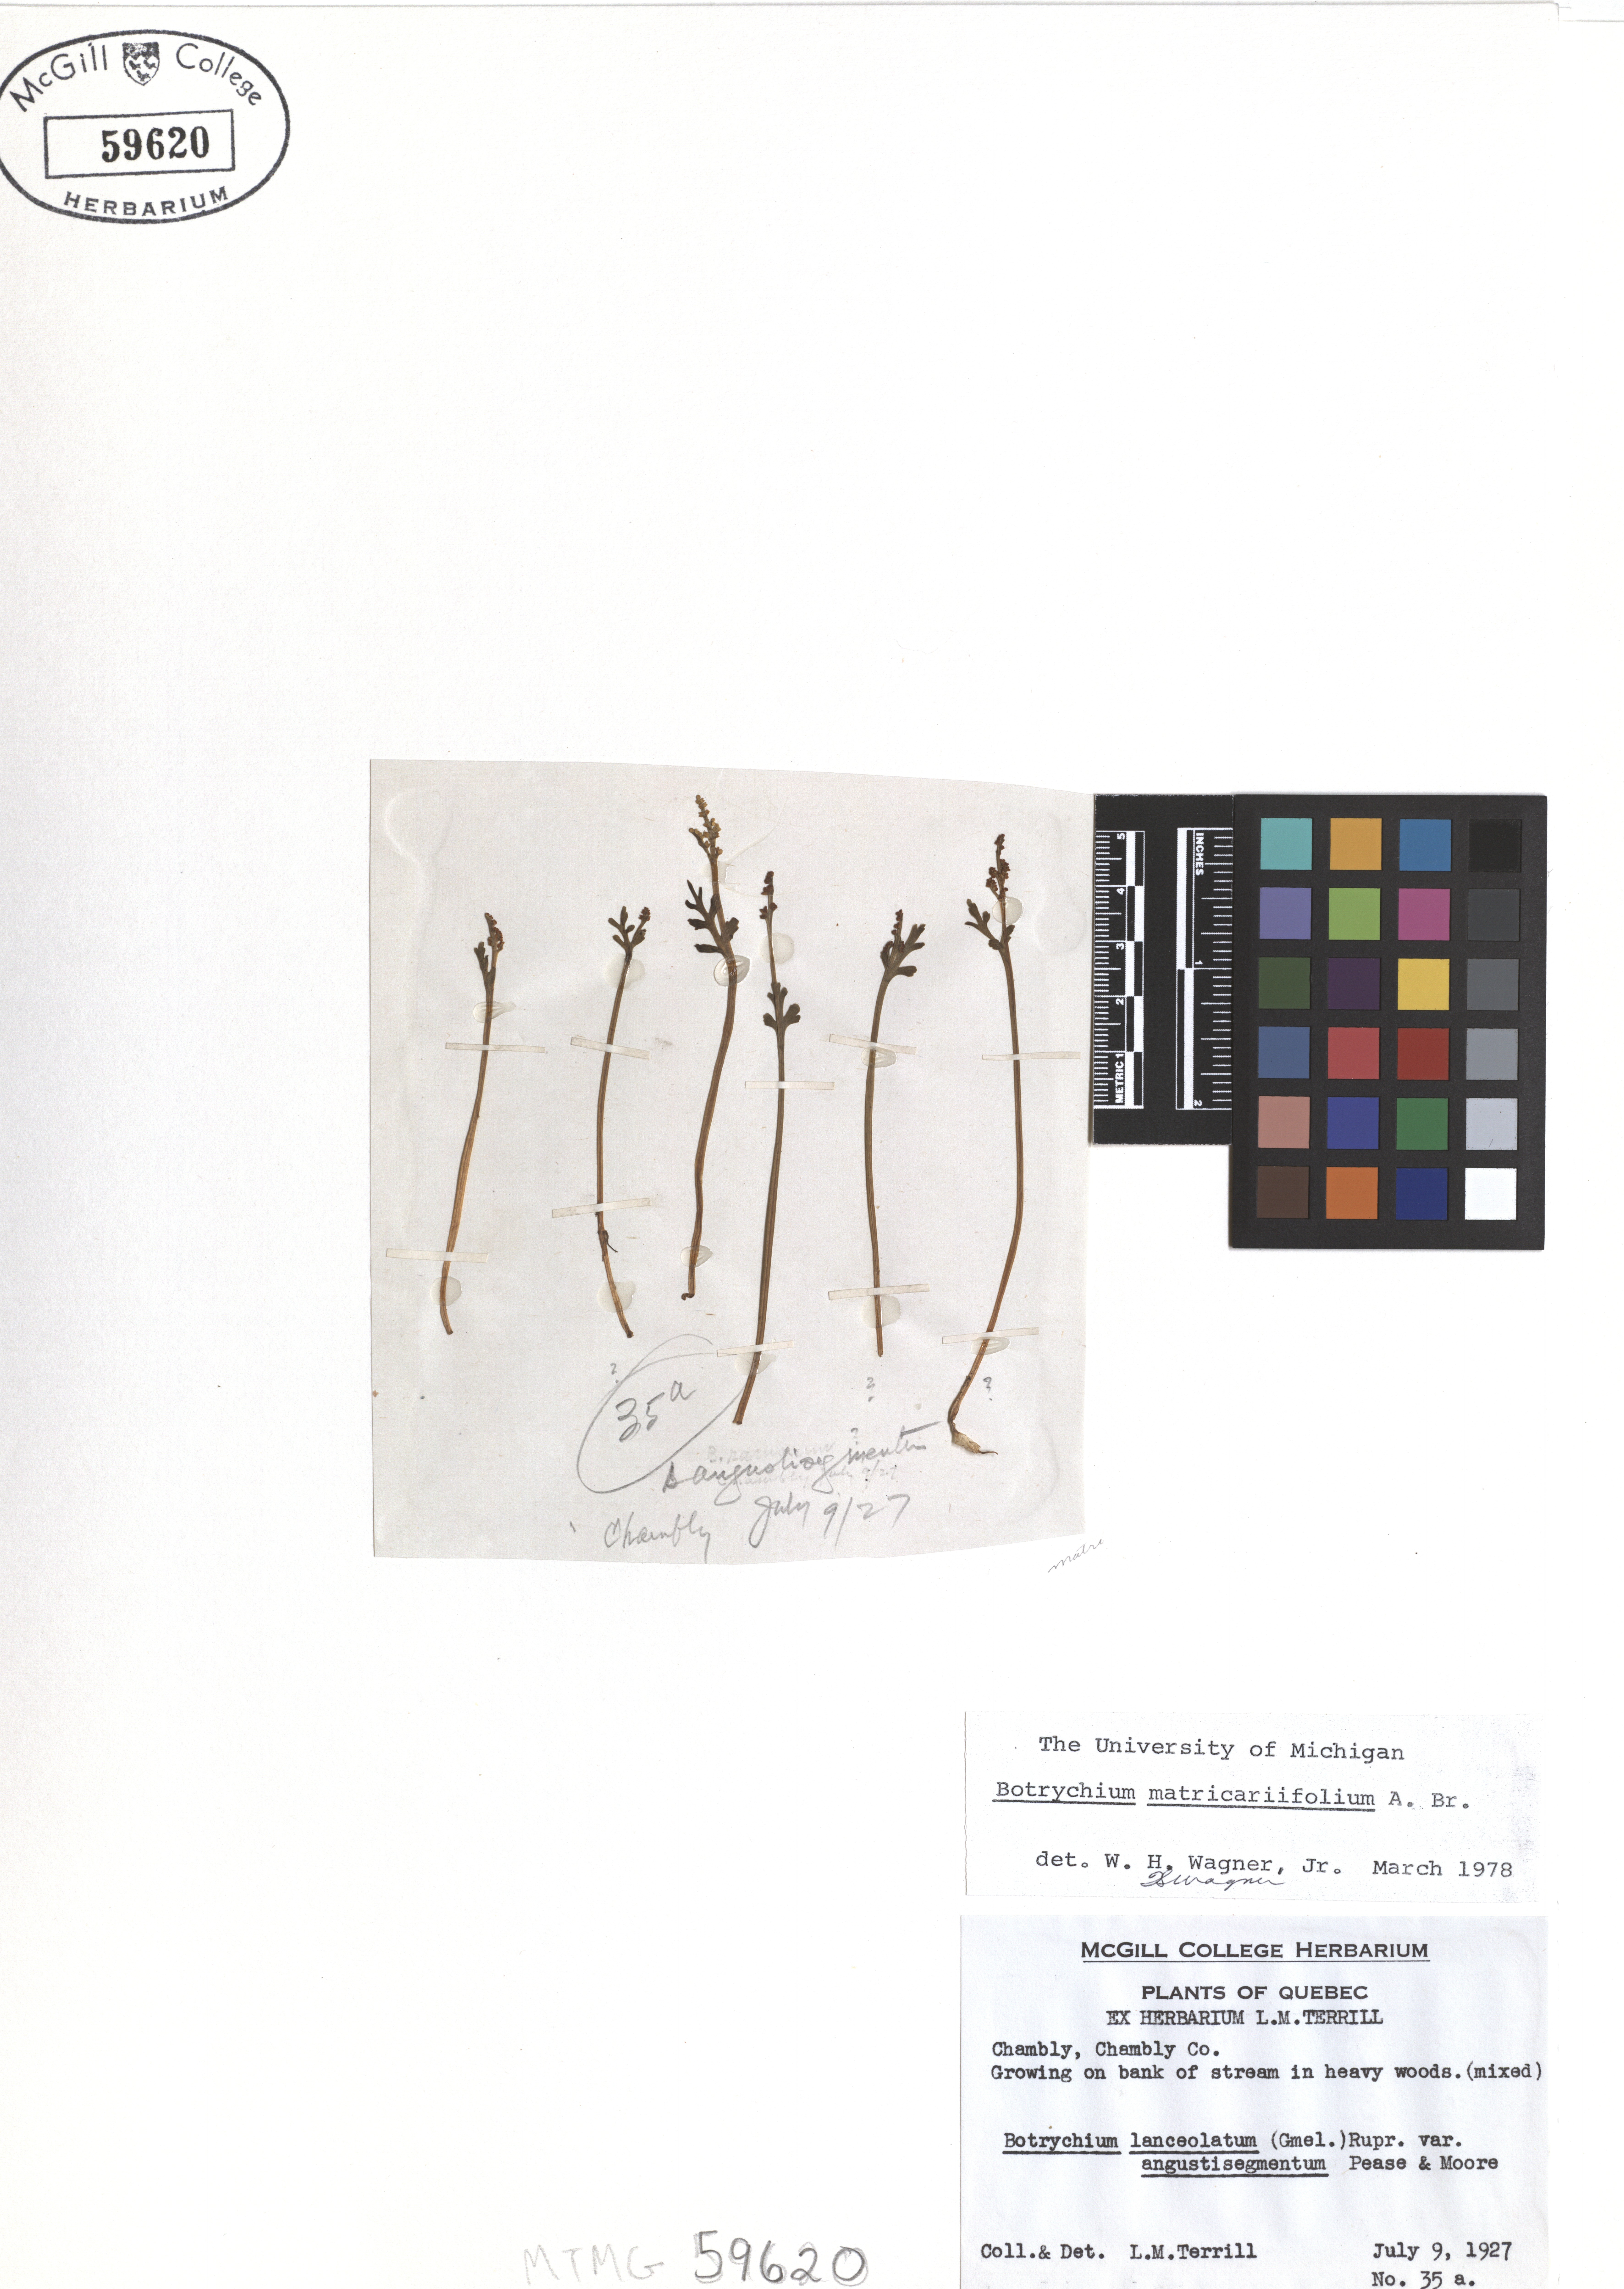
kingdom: Plantae
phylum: Tracheophyta
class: Polypodiopsida
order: Ophioglossales
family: Ophioglossaceae
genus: Botrychium
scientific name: Botrychium matricariifolium
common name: Branched moonwort
